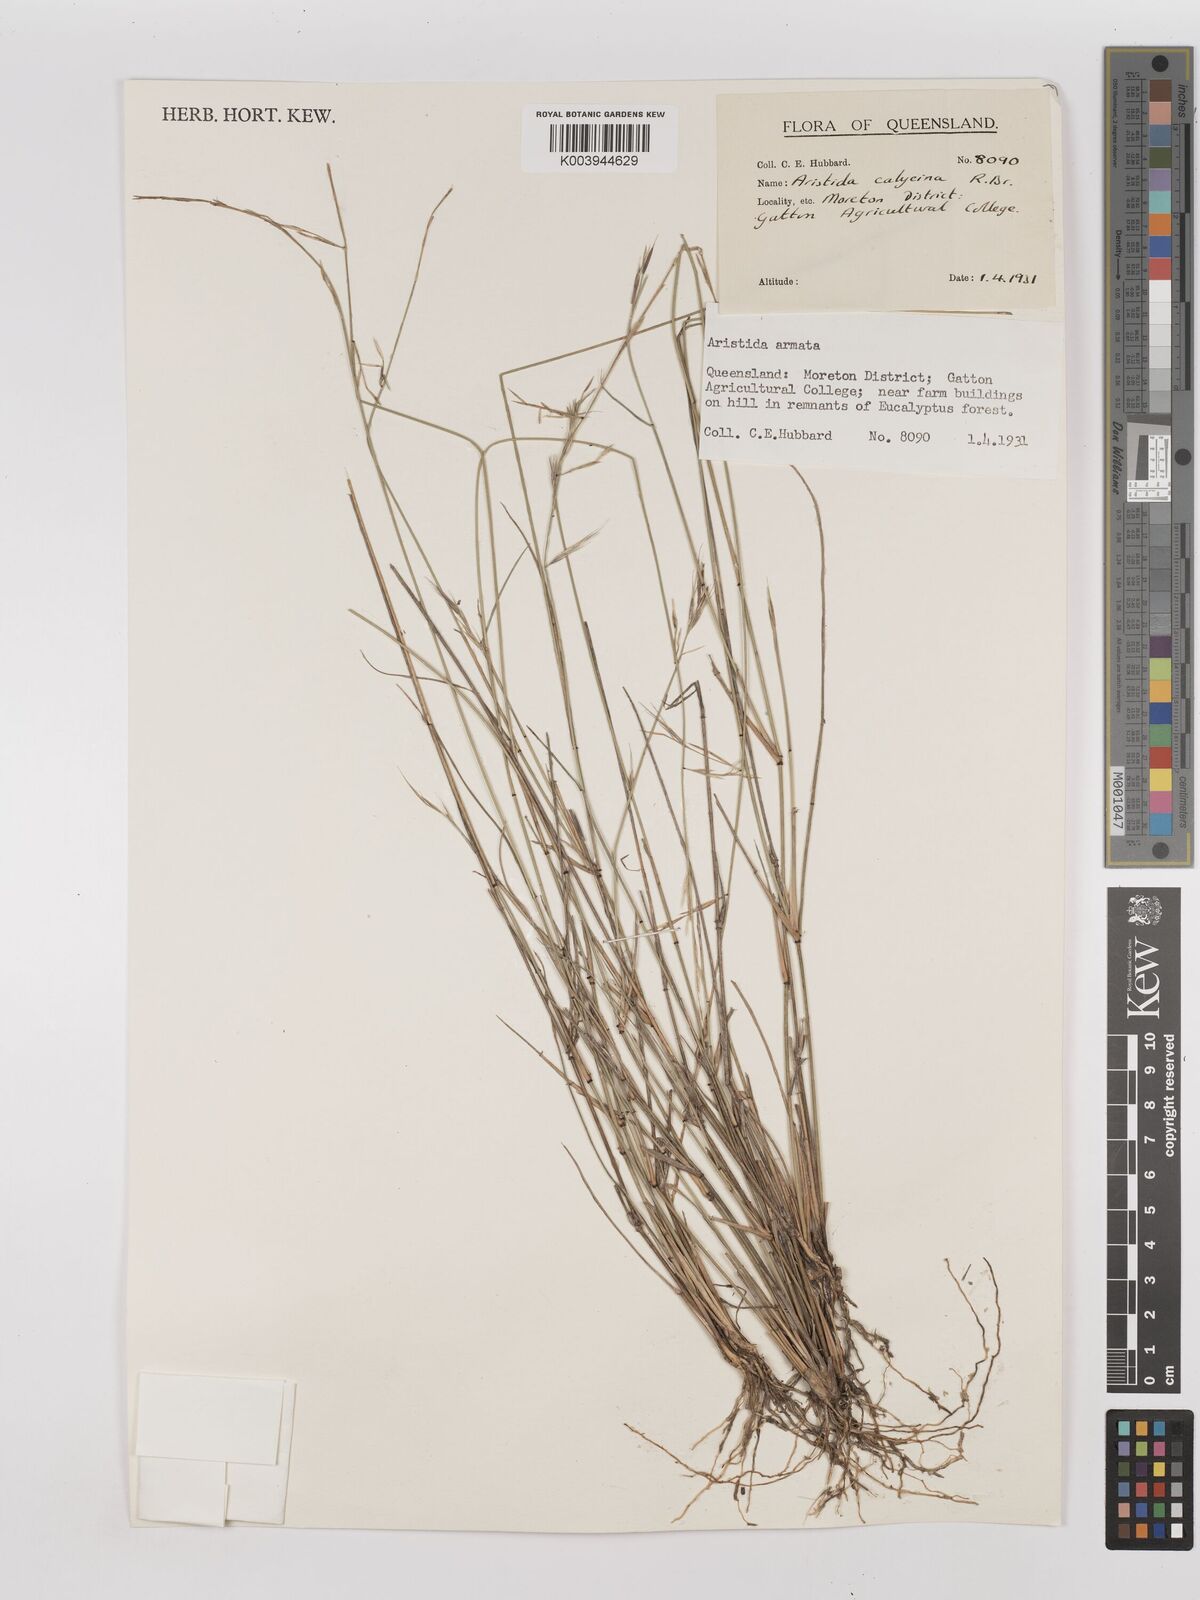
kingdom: Plantae
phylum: Tracheophyta
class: Liliopsida
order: Poales
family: Poaceae
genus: Aristida
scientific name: Aristida calycina
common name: Dark wire grass
